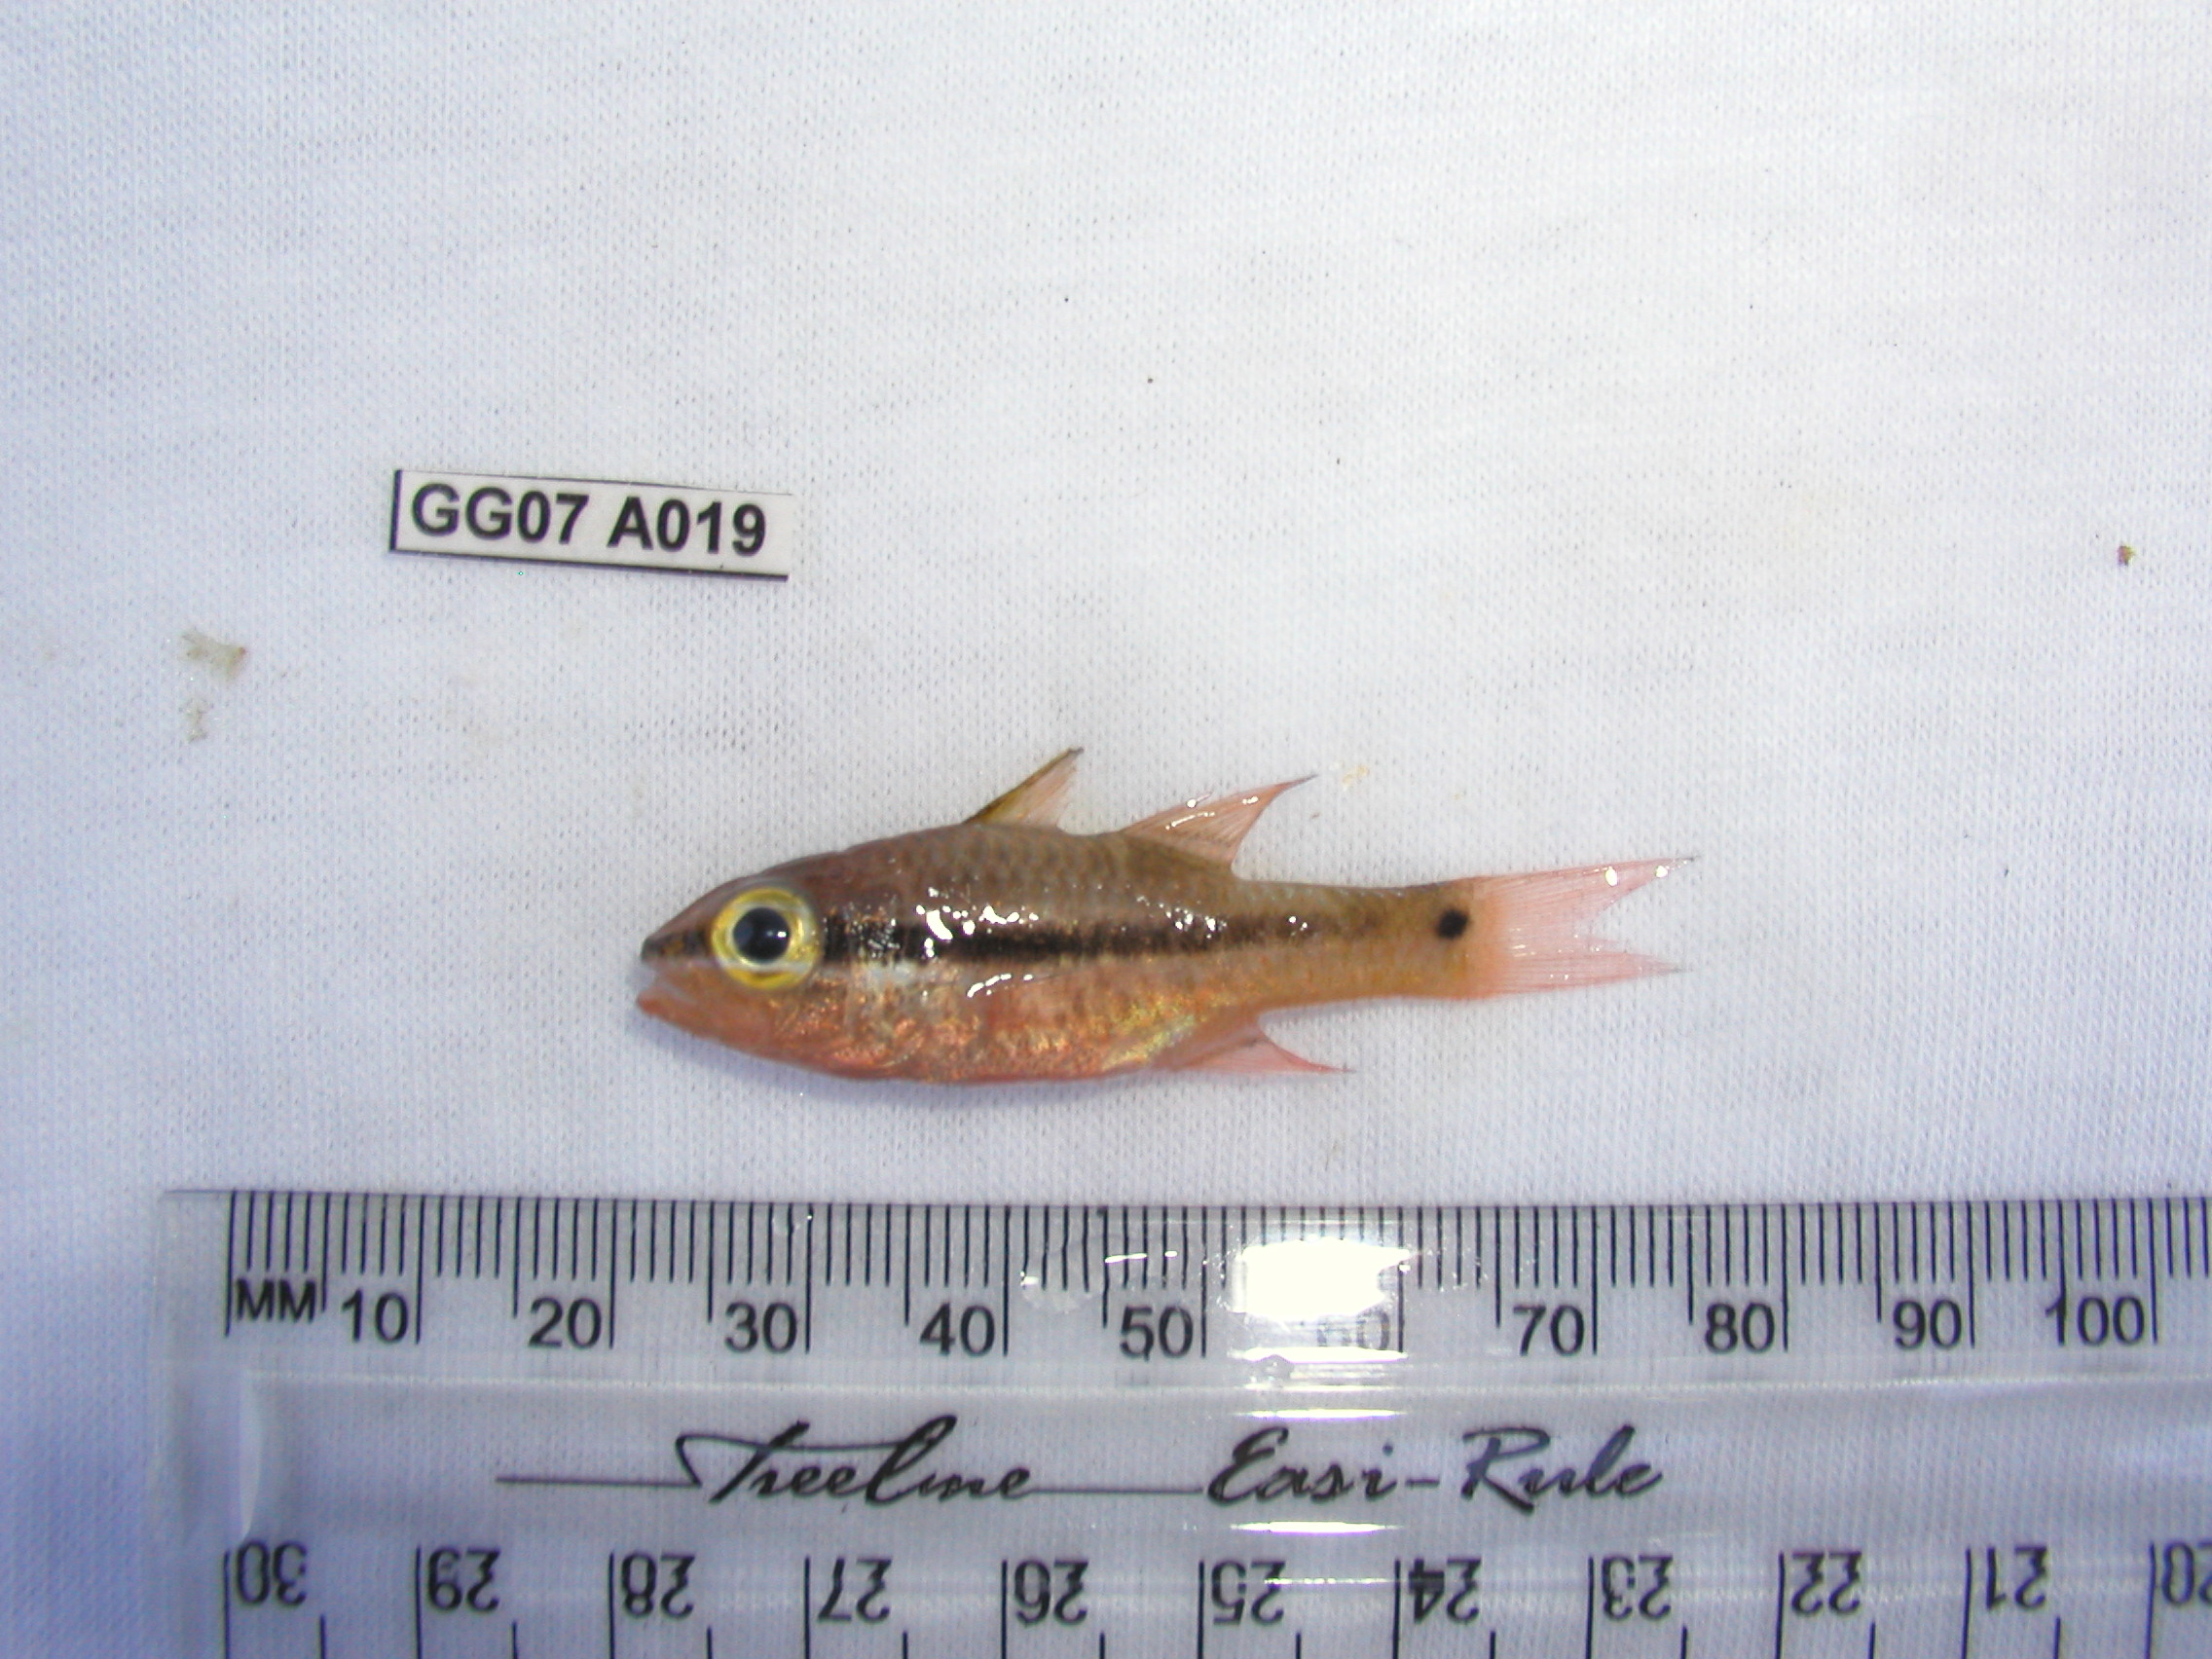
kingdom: Animalia
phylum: Chordata
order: Perciformes
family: Apogonidae
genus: Pristiapogon
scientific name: Pristiapogon kallopterus
